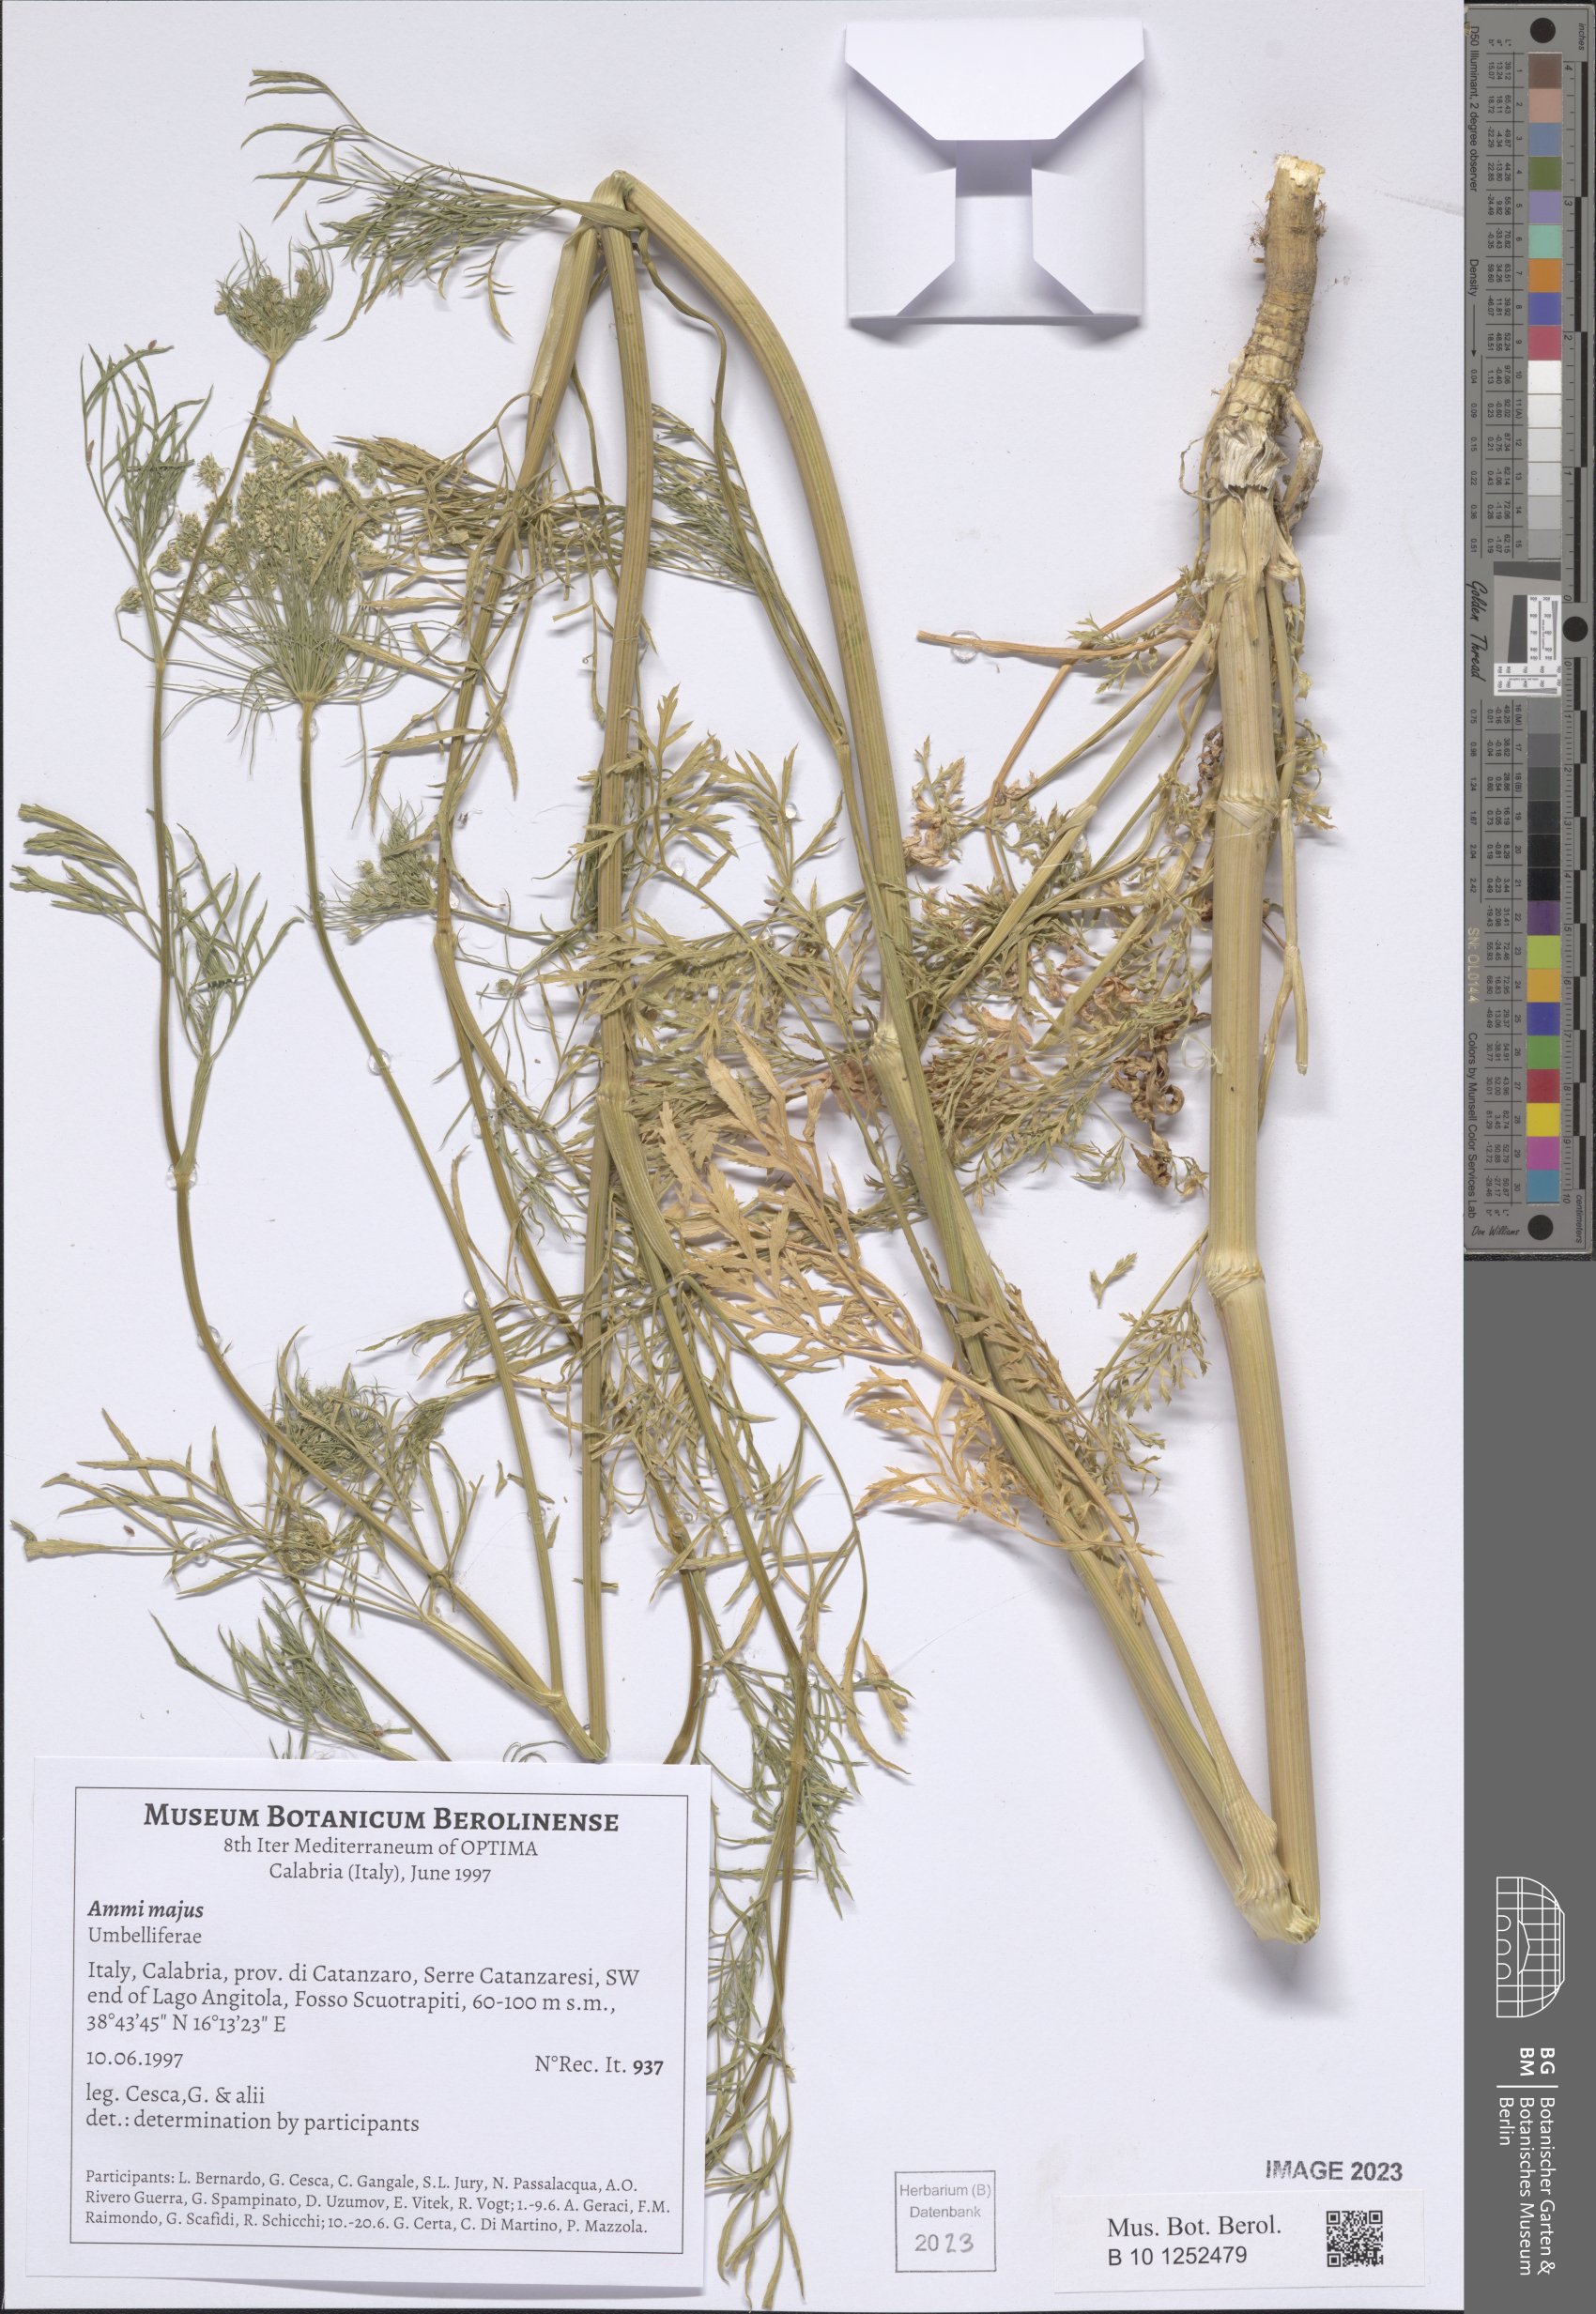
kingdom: Plantae
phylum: Tracheophyta
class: Magnoliopsida
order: Apiales
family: Apiaceae
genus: Ammi
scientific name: Ammi majus
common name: Bullwort
